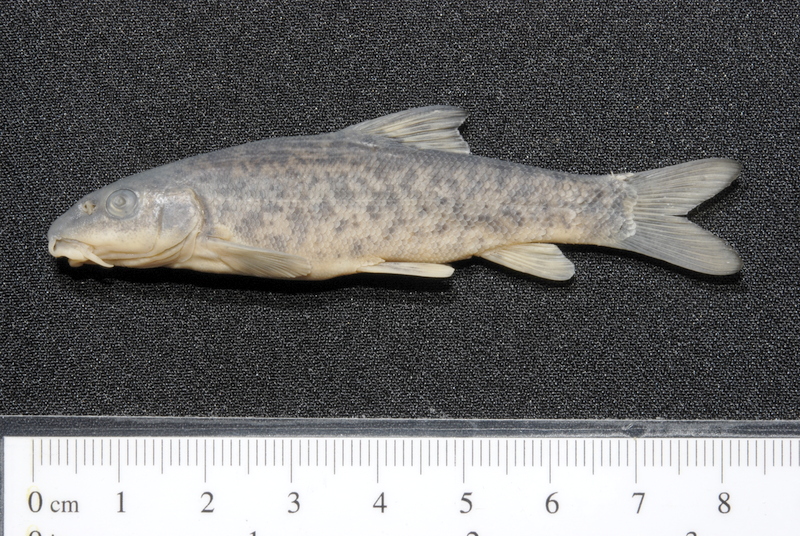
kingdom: Animalia
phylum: Chordata
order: Cypriniformes
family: Cyprinidae
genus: Barbus
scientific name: Barbus barbus
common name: Barbel
